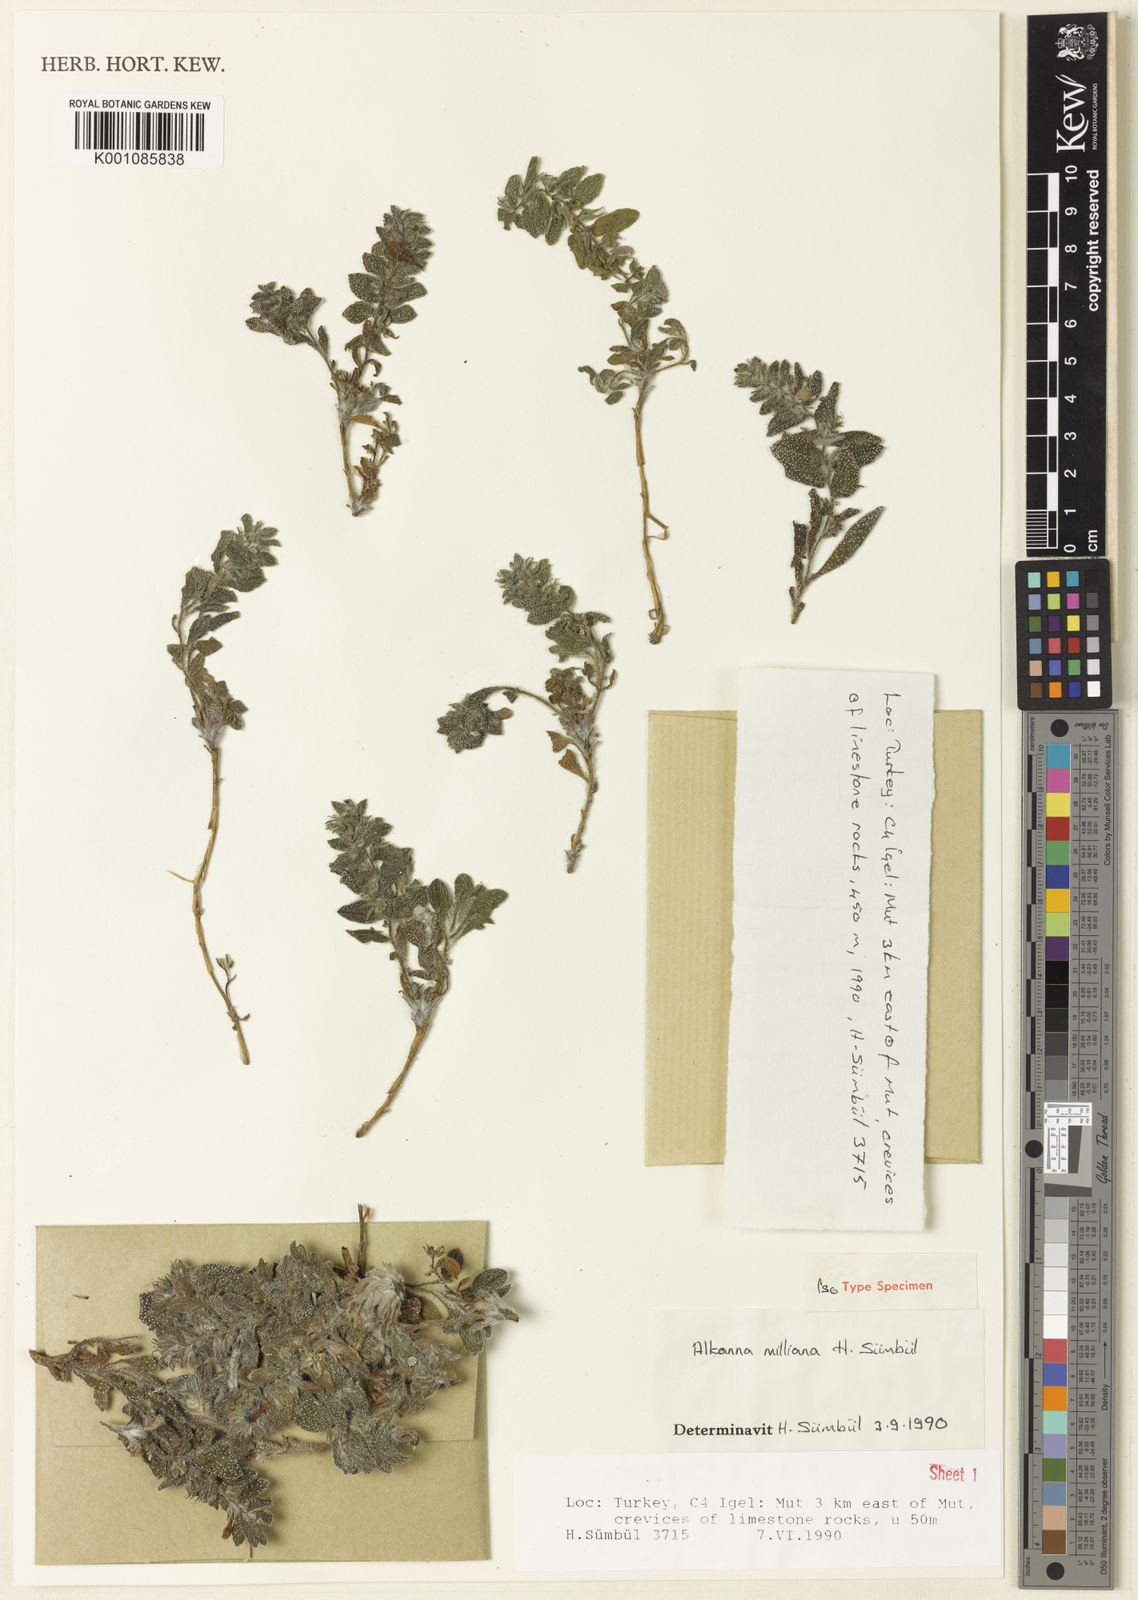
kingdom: Plantae
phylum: Tracheophyta
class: Magnoliopsida
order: Boraginales
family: Boraginaceae
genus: Alkanna
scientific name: Alkanna
